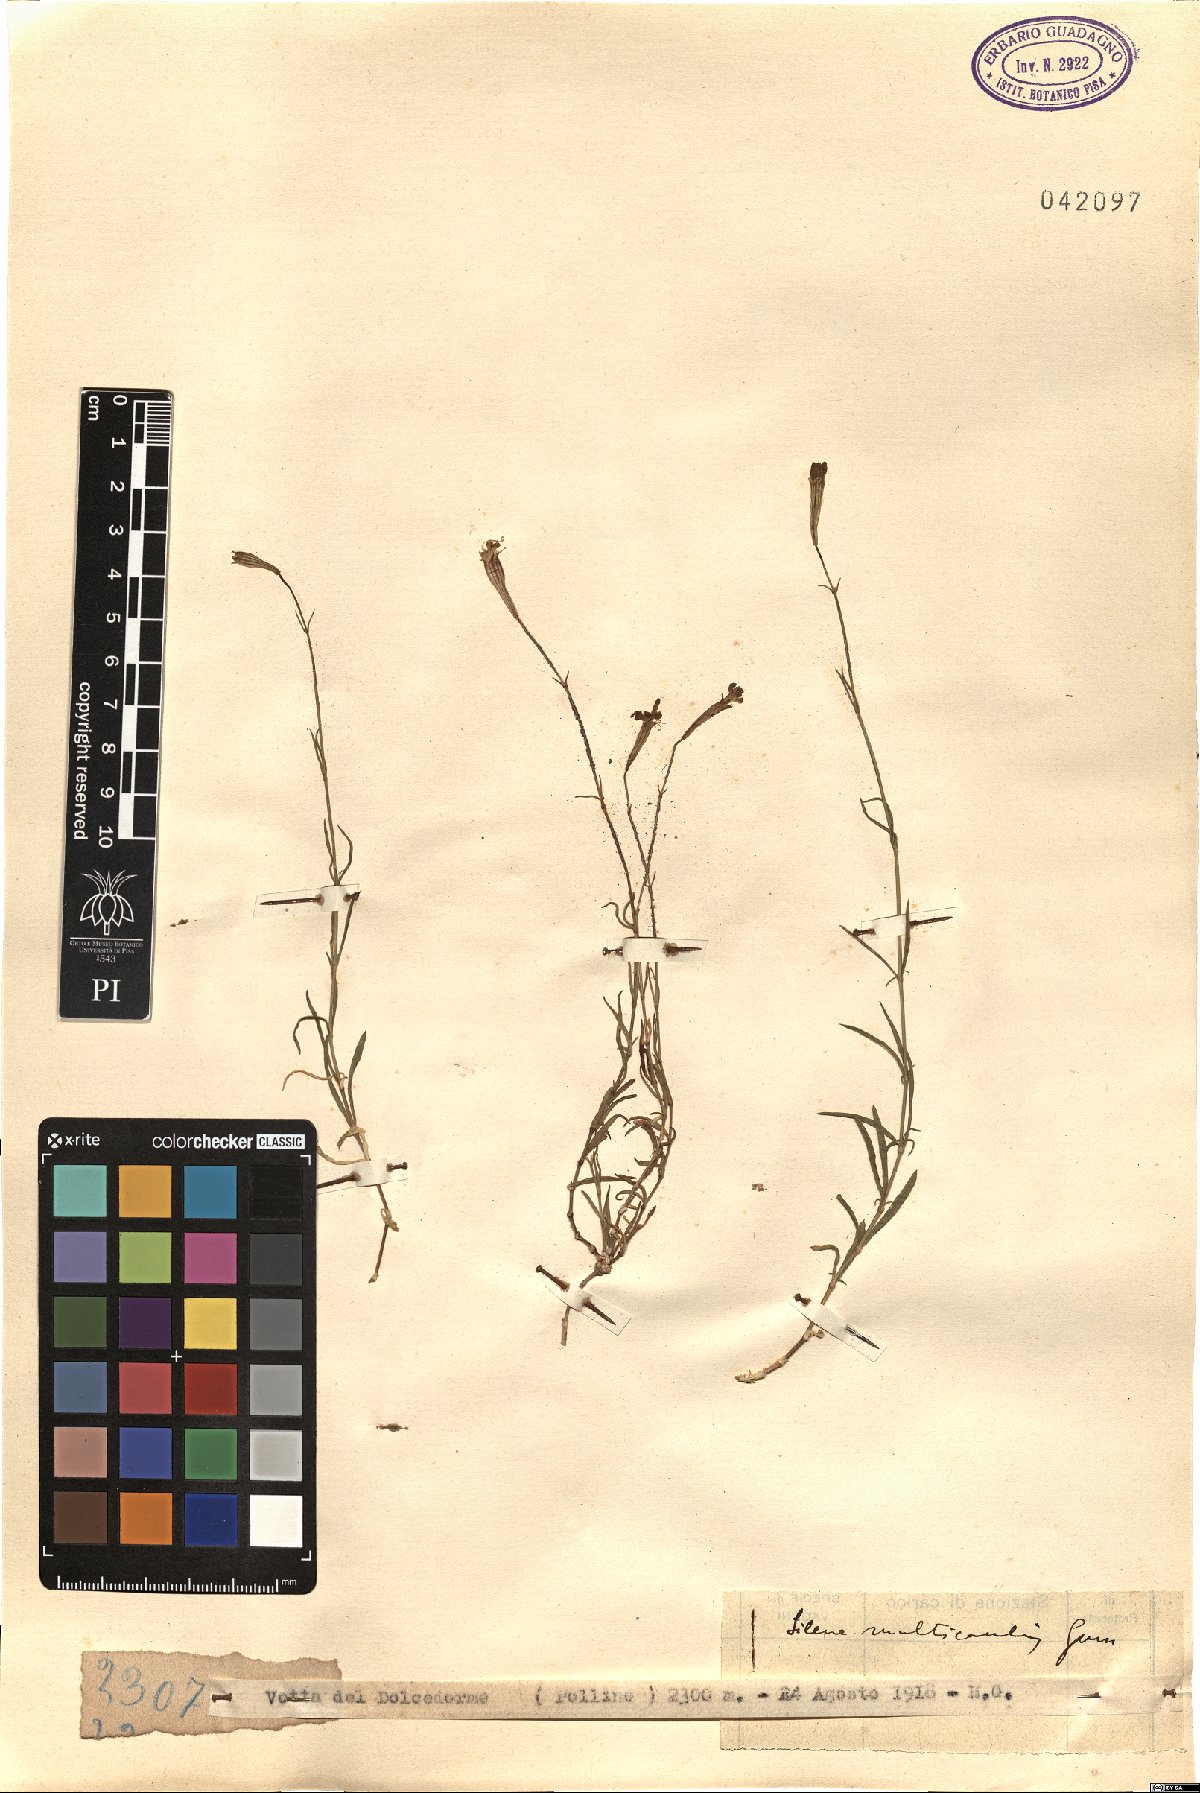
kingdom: Plantae
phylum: Tracheophyta
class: Magnoliopsida
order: Caryophyllales
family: Caryophyllaceae
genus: Silene
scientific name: Silene multicaulis
